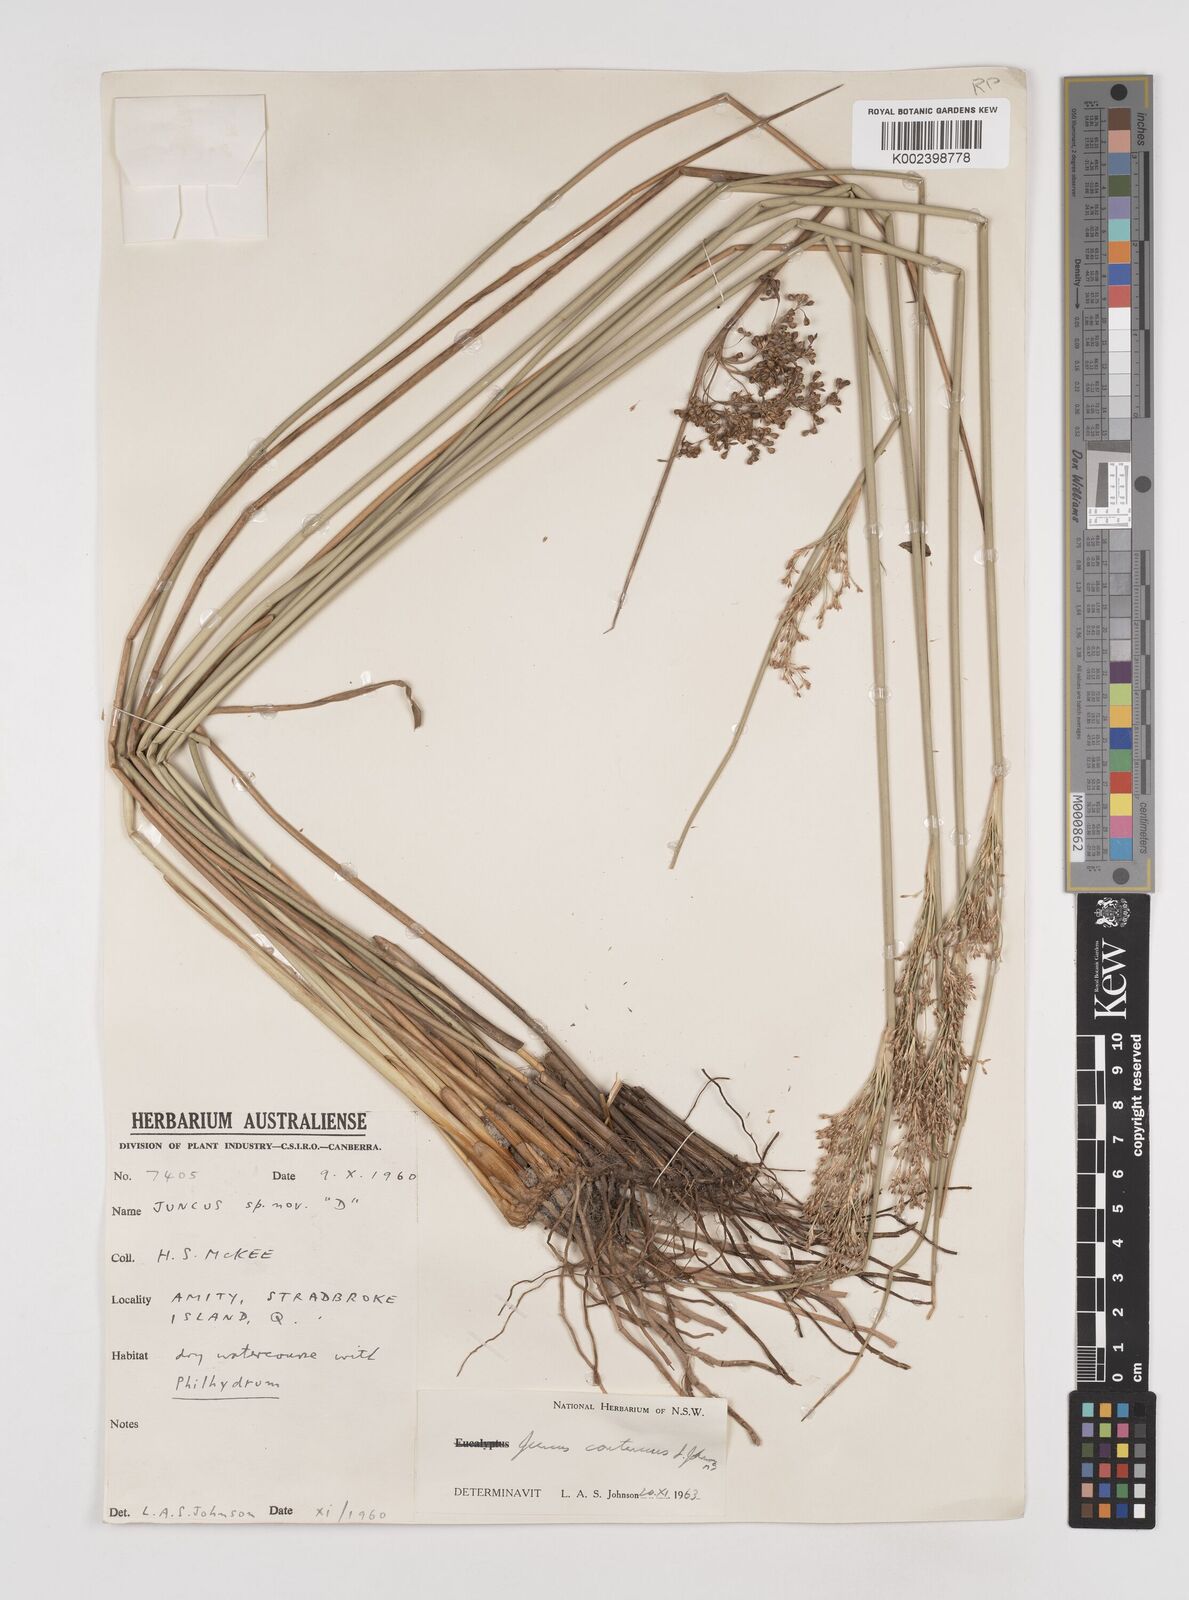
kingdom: Plantae
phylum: Tracheophyta
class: Liliopsida
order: Poales
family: Juncaceae
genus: Juncus
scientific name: Juncus continuus
